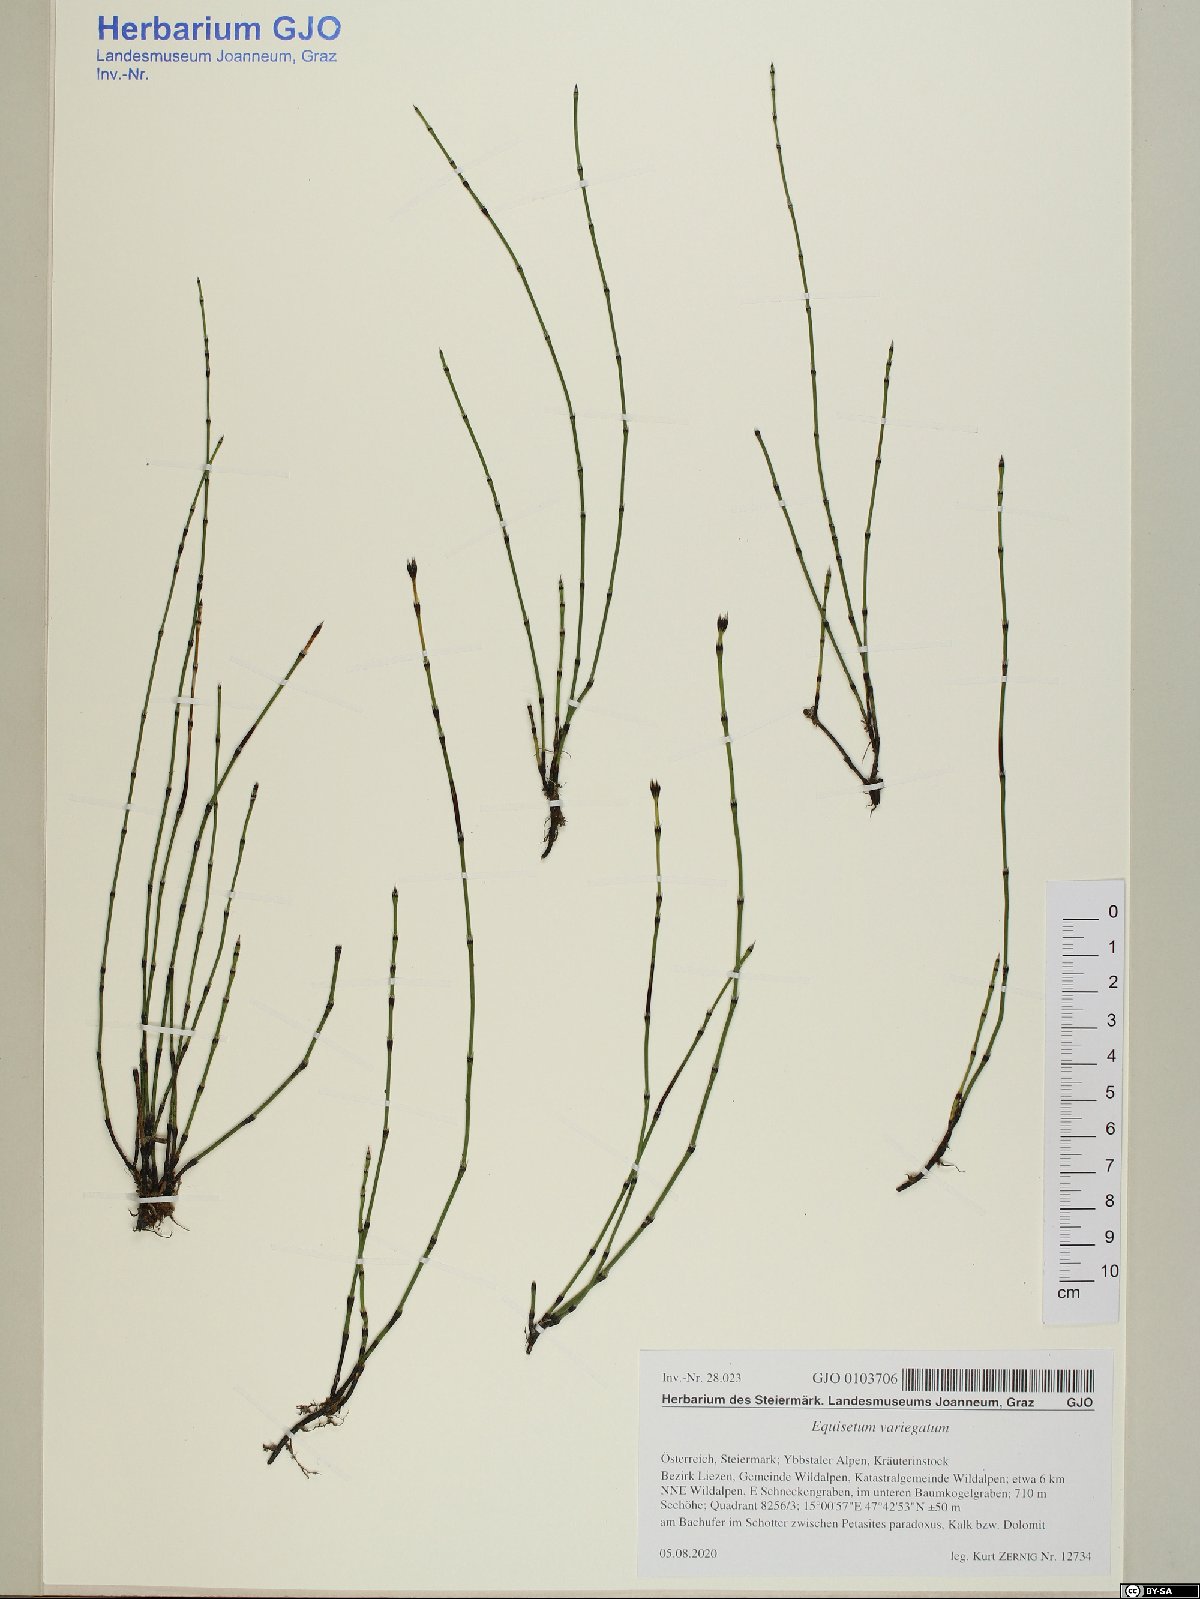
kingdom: Plantae
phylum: Tracheophyta
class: Polypodiopsida
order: Equisetales
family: Equisetaceae
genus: Equisetum
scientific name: Equisetum variegatum
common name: Variegated horsetail
